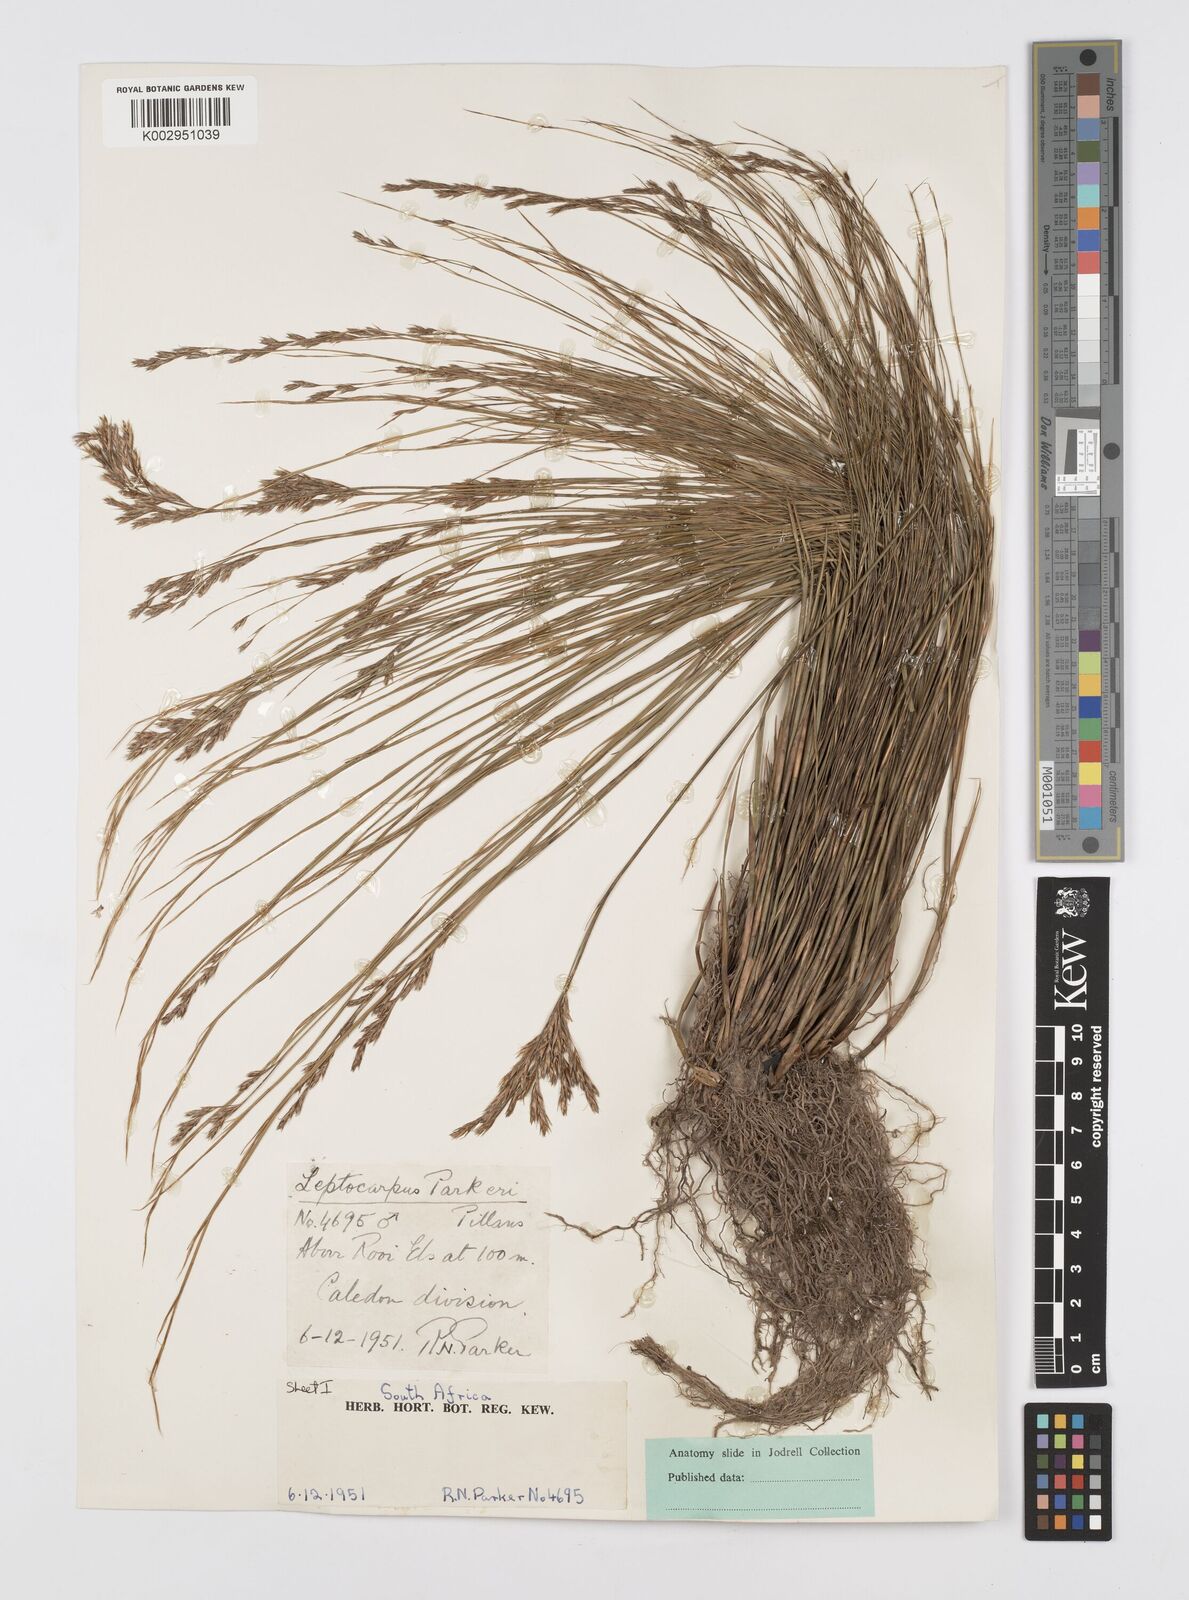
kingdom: Plantae
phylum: Tracheophyta
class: Liliopsida
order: Poales
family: Restionaceae
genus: Restio
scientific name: Restio festuciformis
